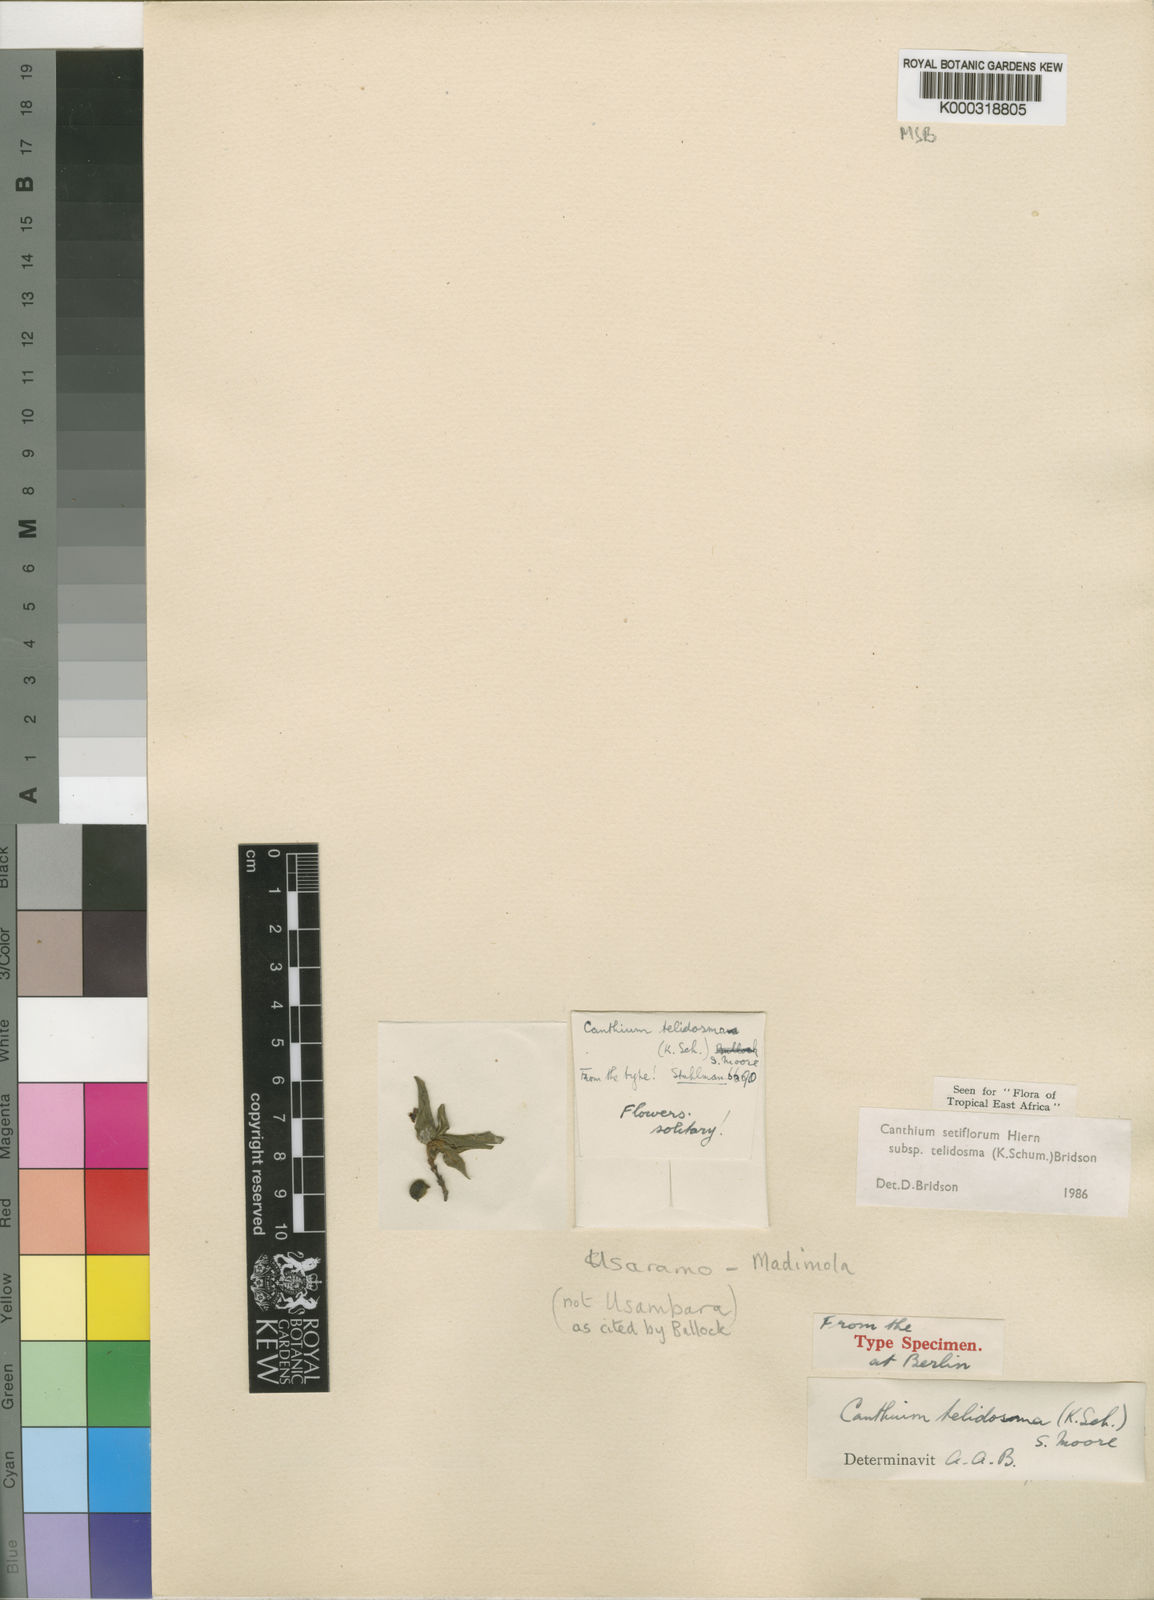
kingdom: Plantae
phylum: Tracheophyta
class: Magnoliopsida
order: Gentianales
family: Rubiaceae
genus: Bullockia
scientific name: Bullockia setiflora
